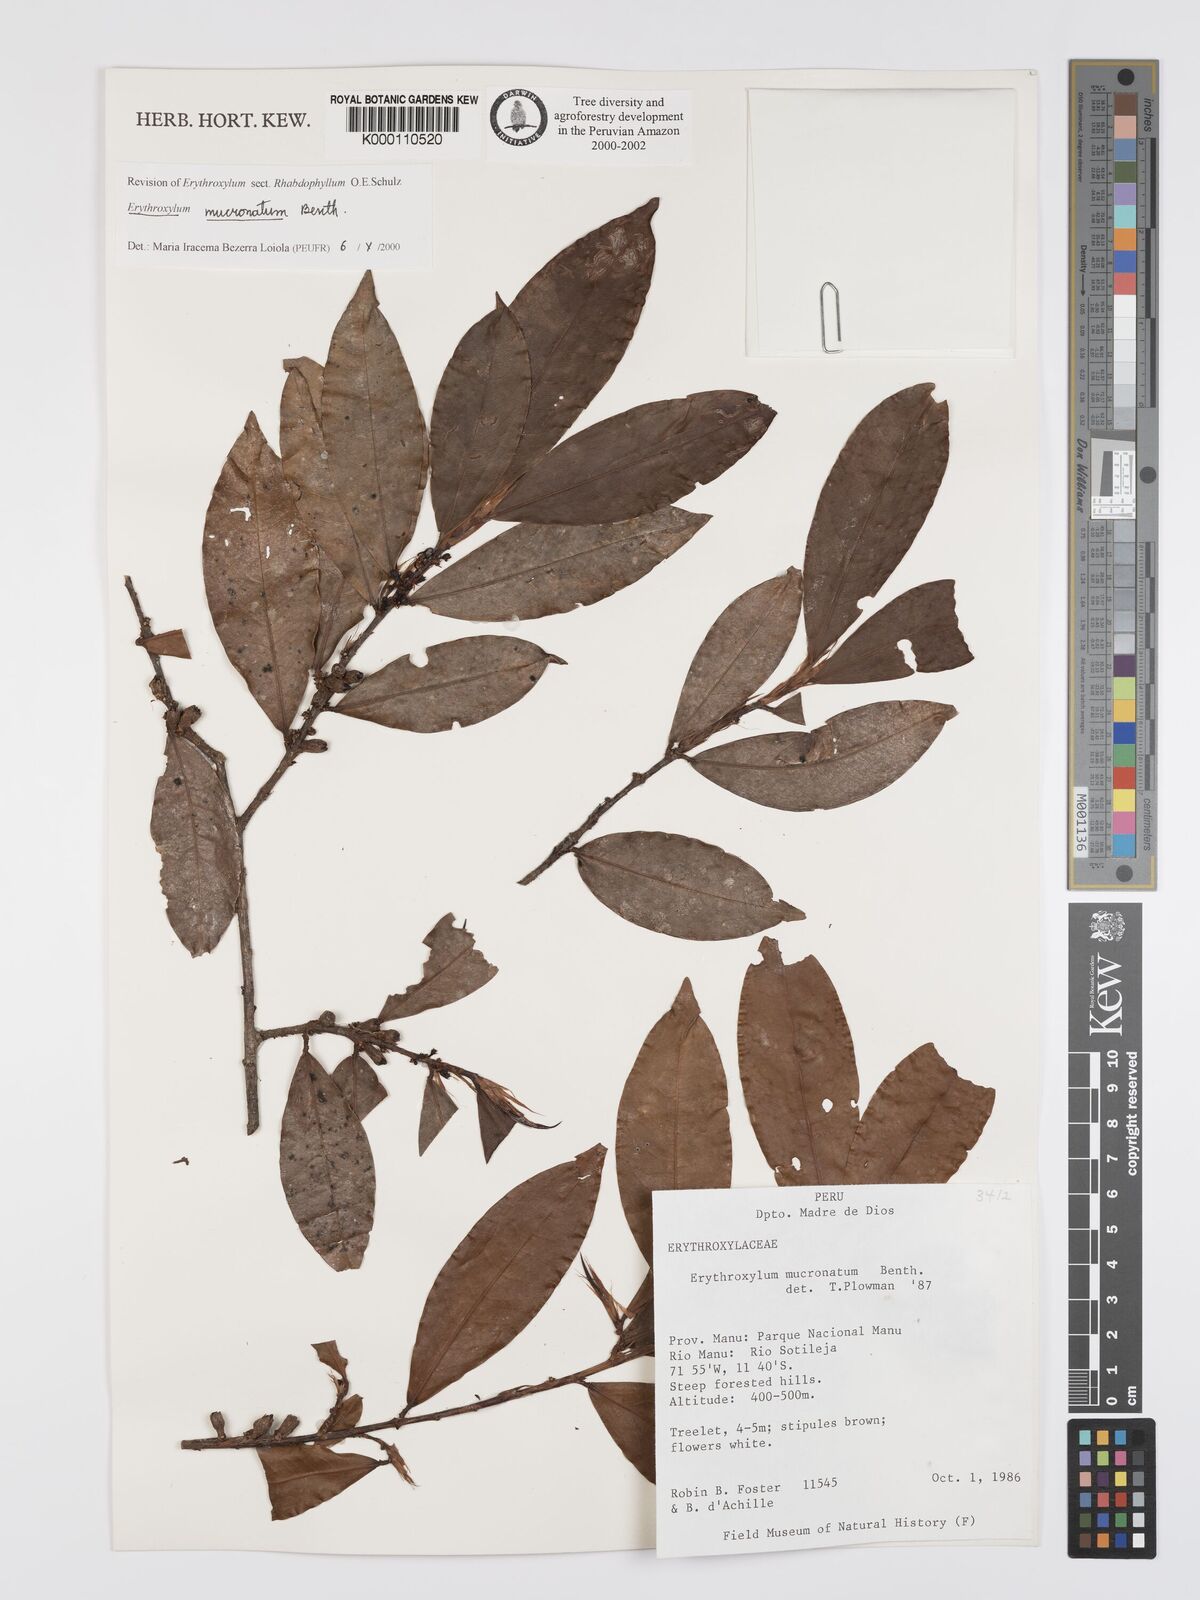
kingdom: Plantae
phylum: Tracheophyta
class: Magnoliopsida
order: Malpighiales
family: Erythroxylaceae
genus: Erythroxylum
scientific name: Erythroxylum mucronatum
